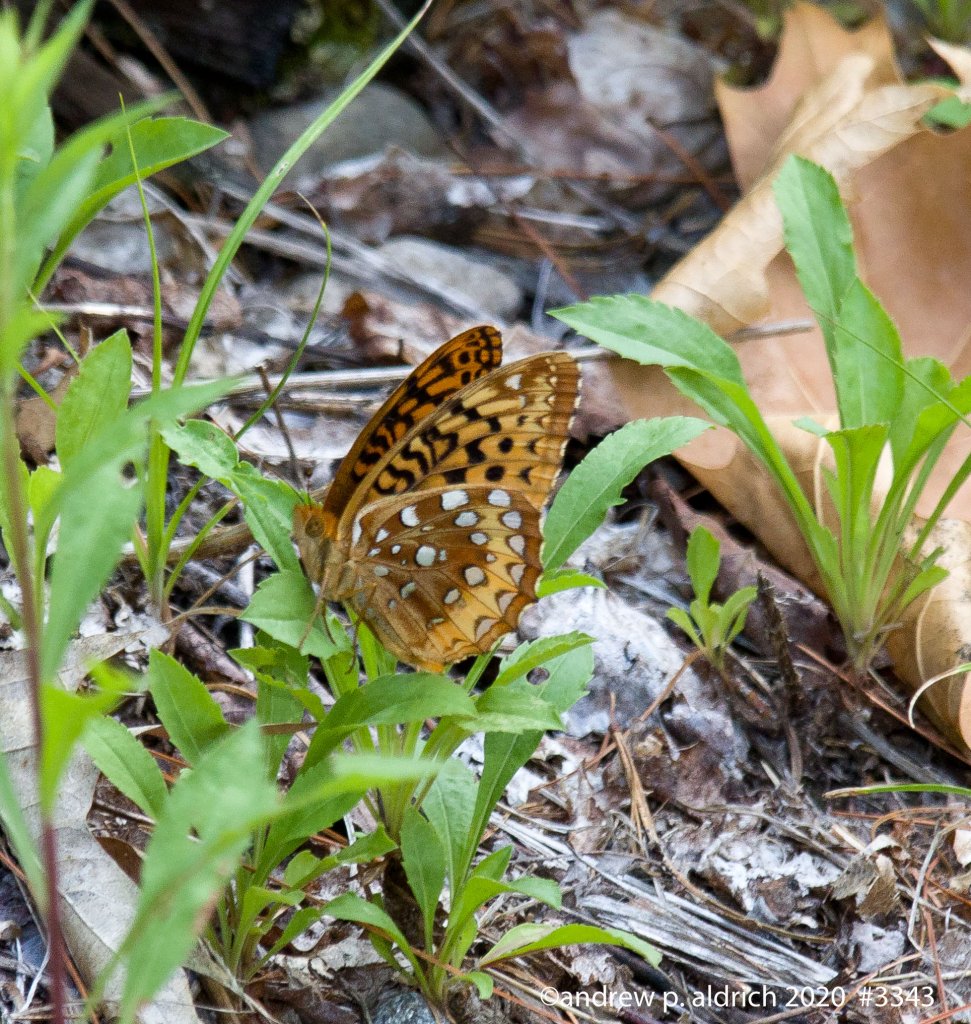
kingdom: Animalia
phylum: Arthropoda
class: Insecta
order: Lepidoptera
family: Nymphalidae
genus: Speyeria
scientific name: Speyeria cybele
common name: Great Spangled Fritillary
